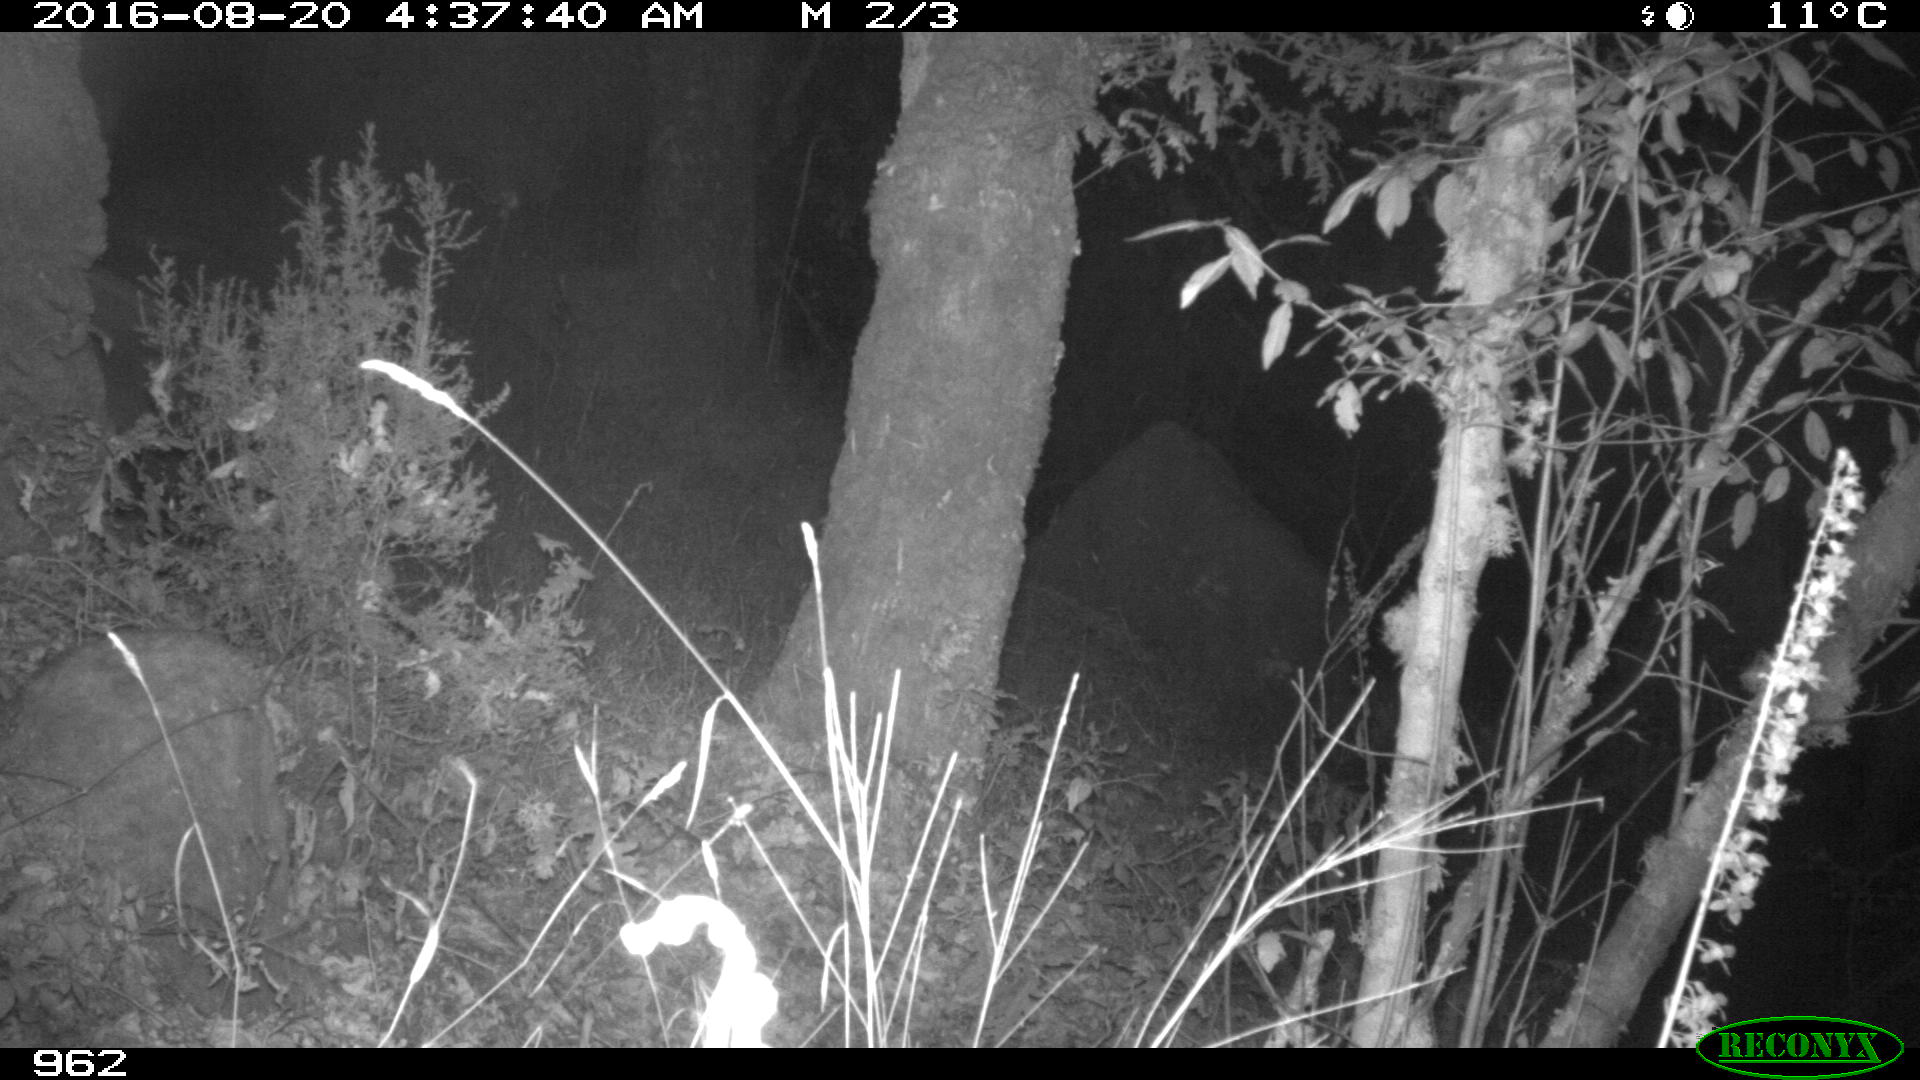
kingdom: Animalia
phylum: Chordata
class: Mammalia
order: Artiodactyla
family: Suidae
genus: Sus
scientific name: Sus scrofa
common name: Wild boar
